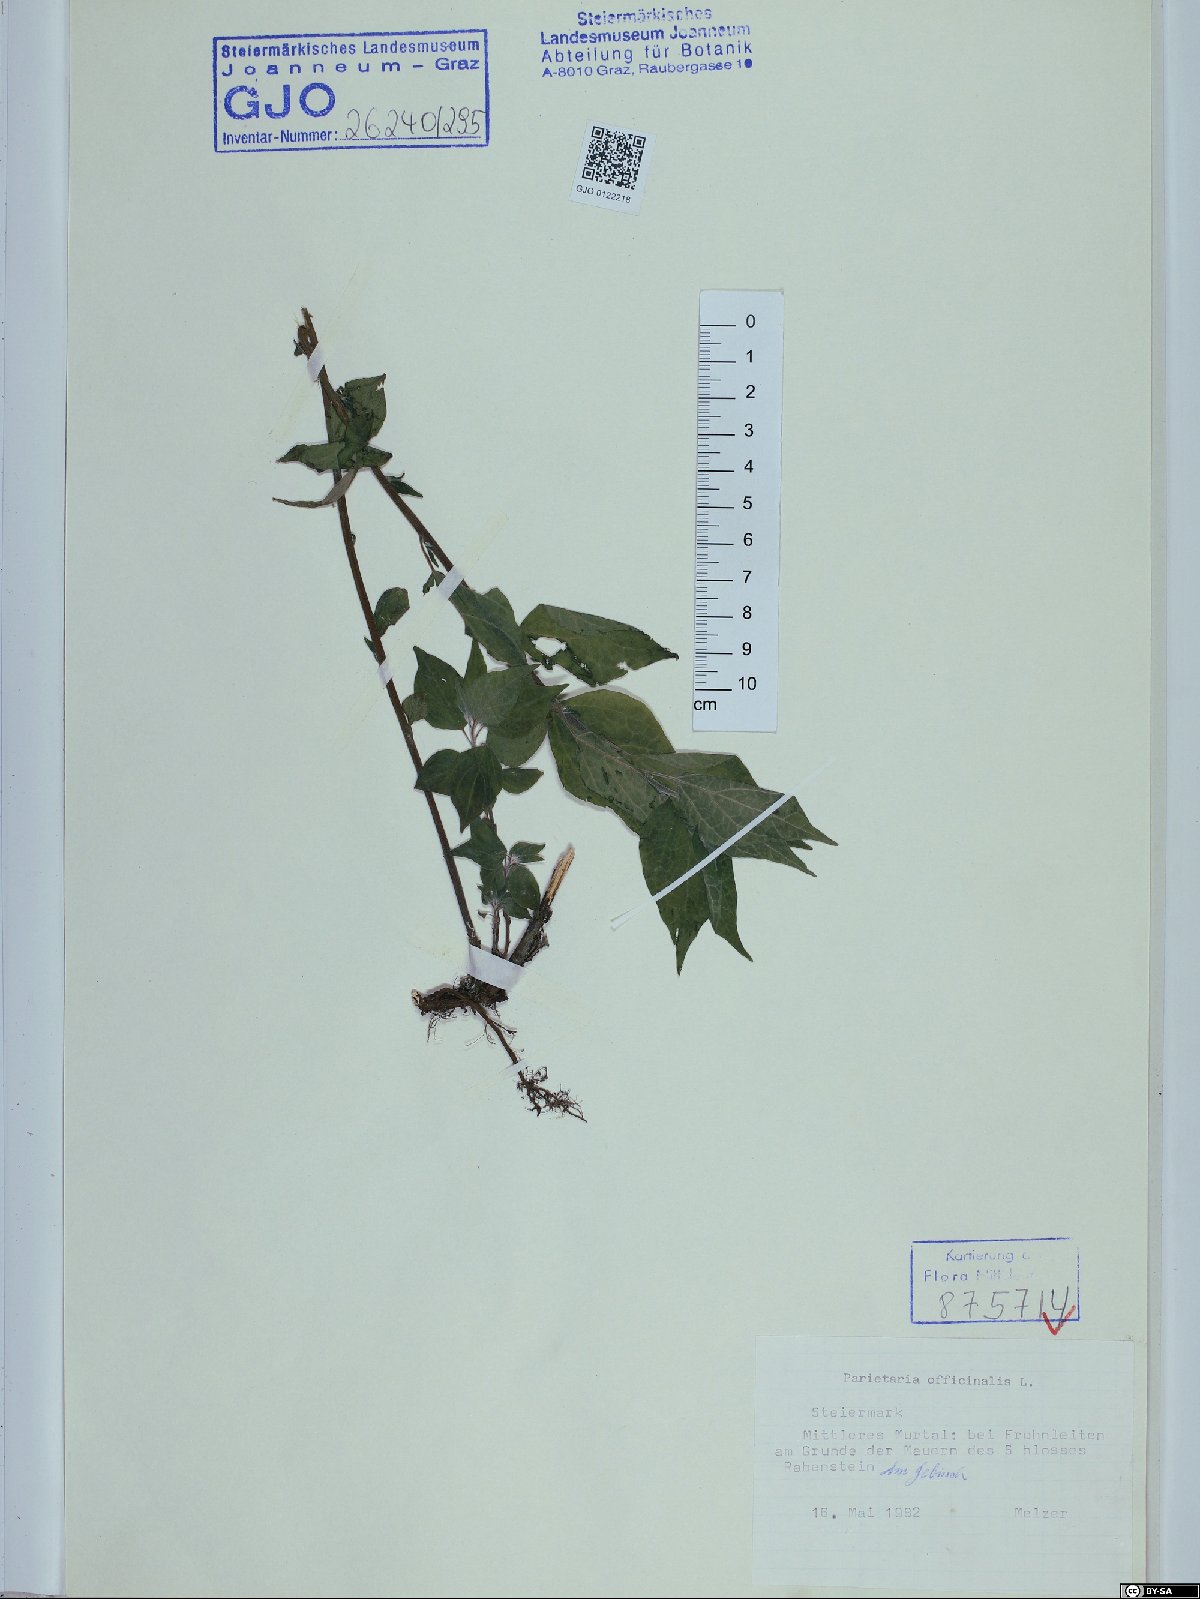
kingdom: Plantae
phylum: Tracheophyta
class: Magnoliopsida
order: Rosales
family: Urticaceae
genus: Parietaria
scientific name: Parietaria officinalis
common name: Eastern pellitory-of-the-wall
